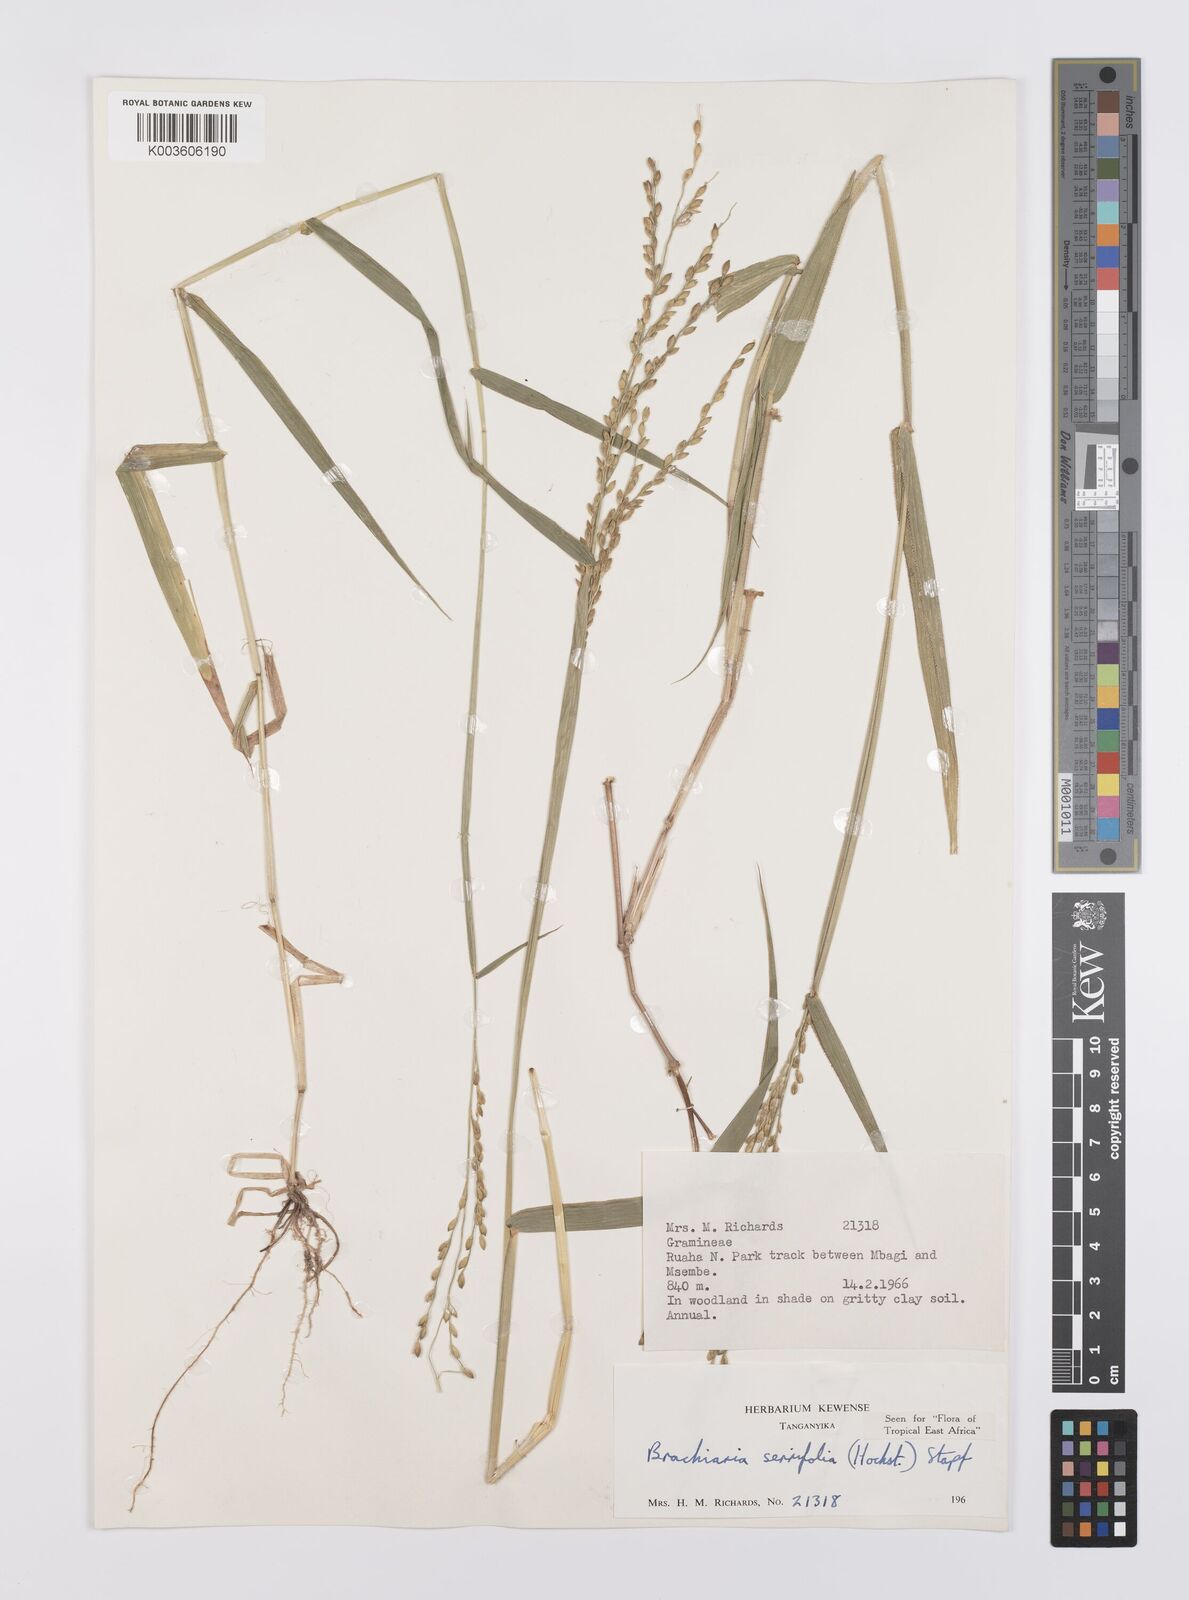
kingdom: Plantae
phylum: Tracheophyta
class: Liliopsida
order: Poales
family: Poaceae
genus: Urochloa
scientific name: Urochloa serrifolia
